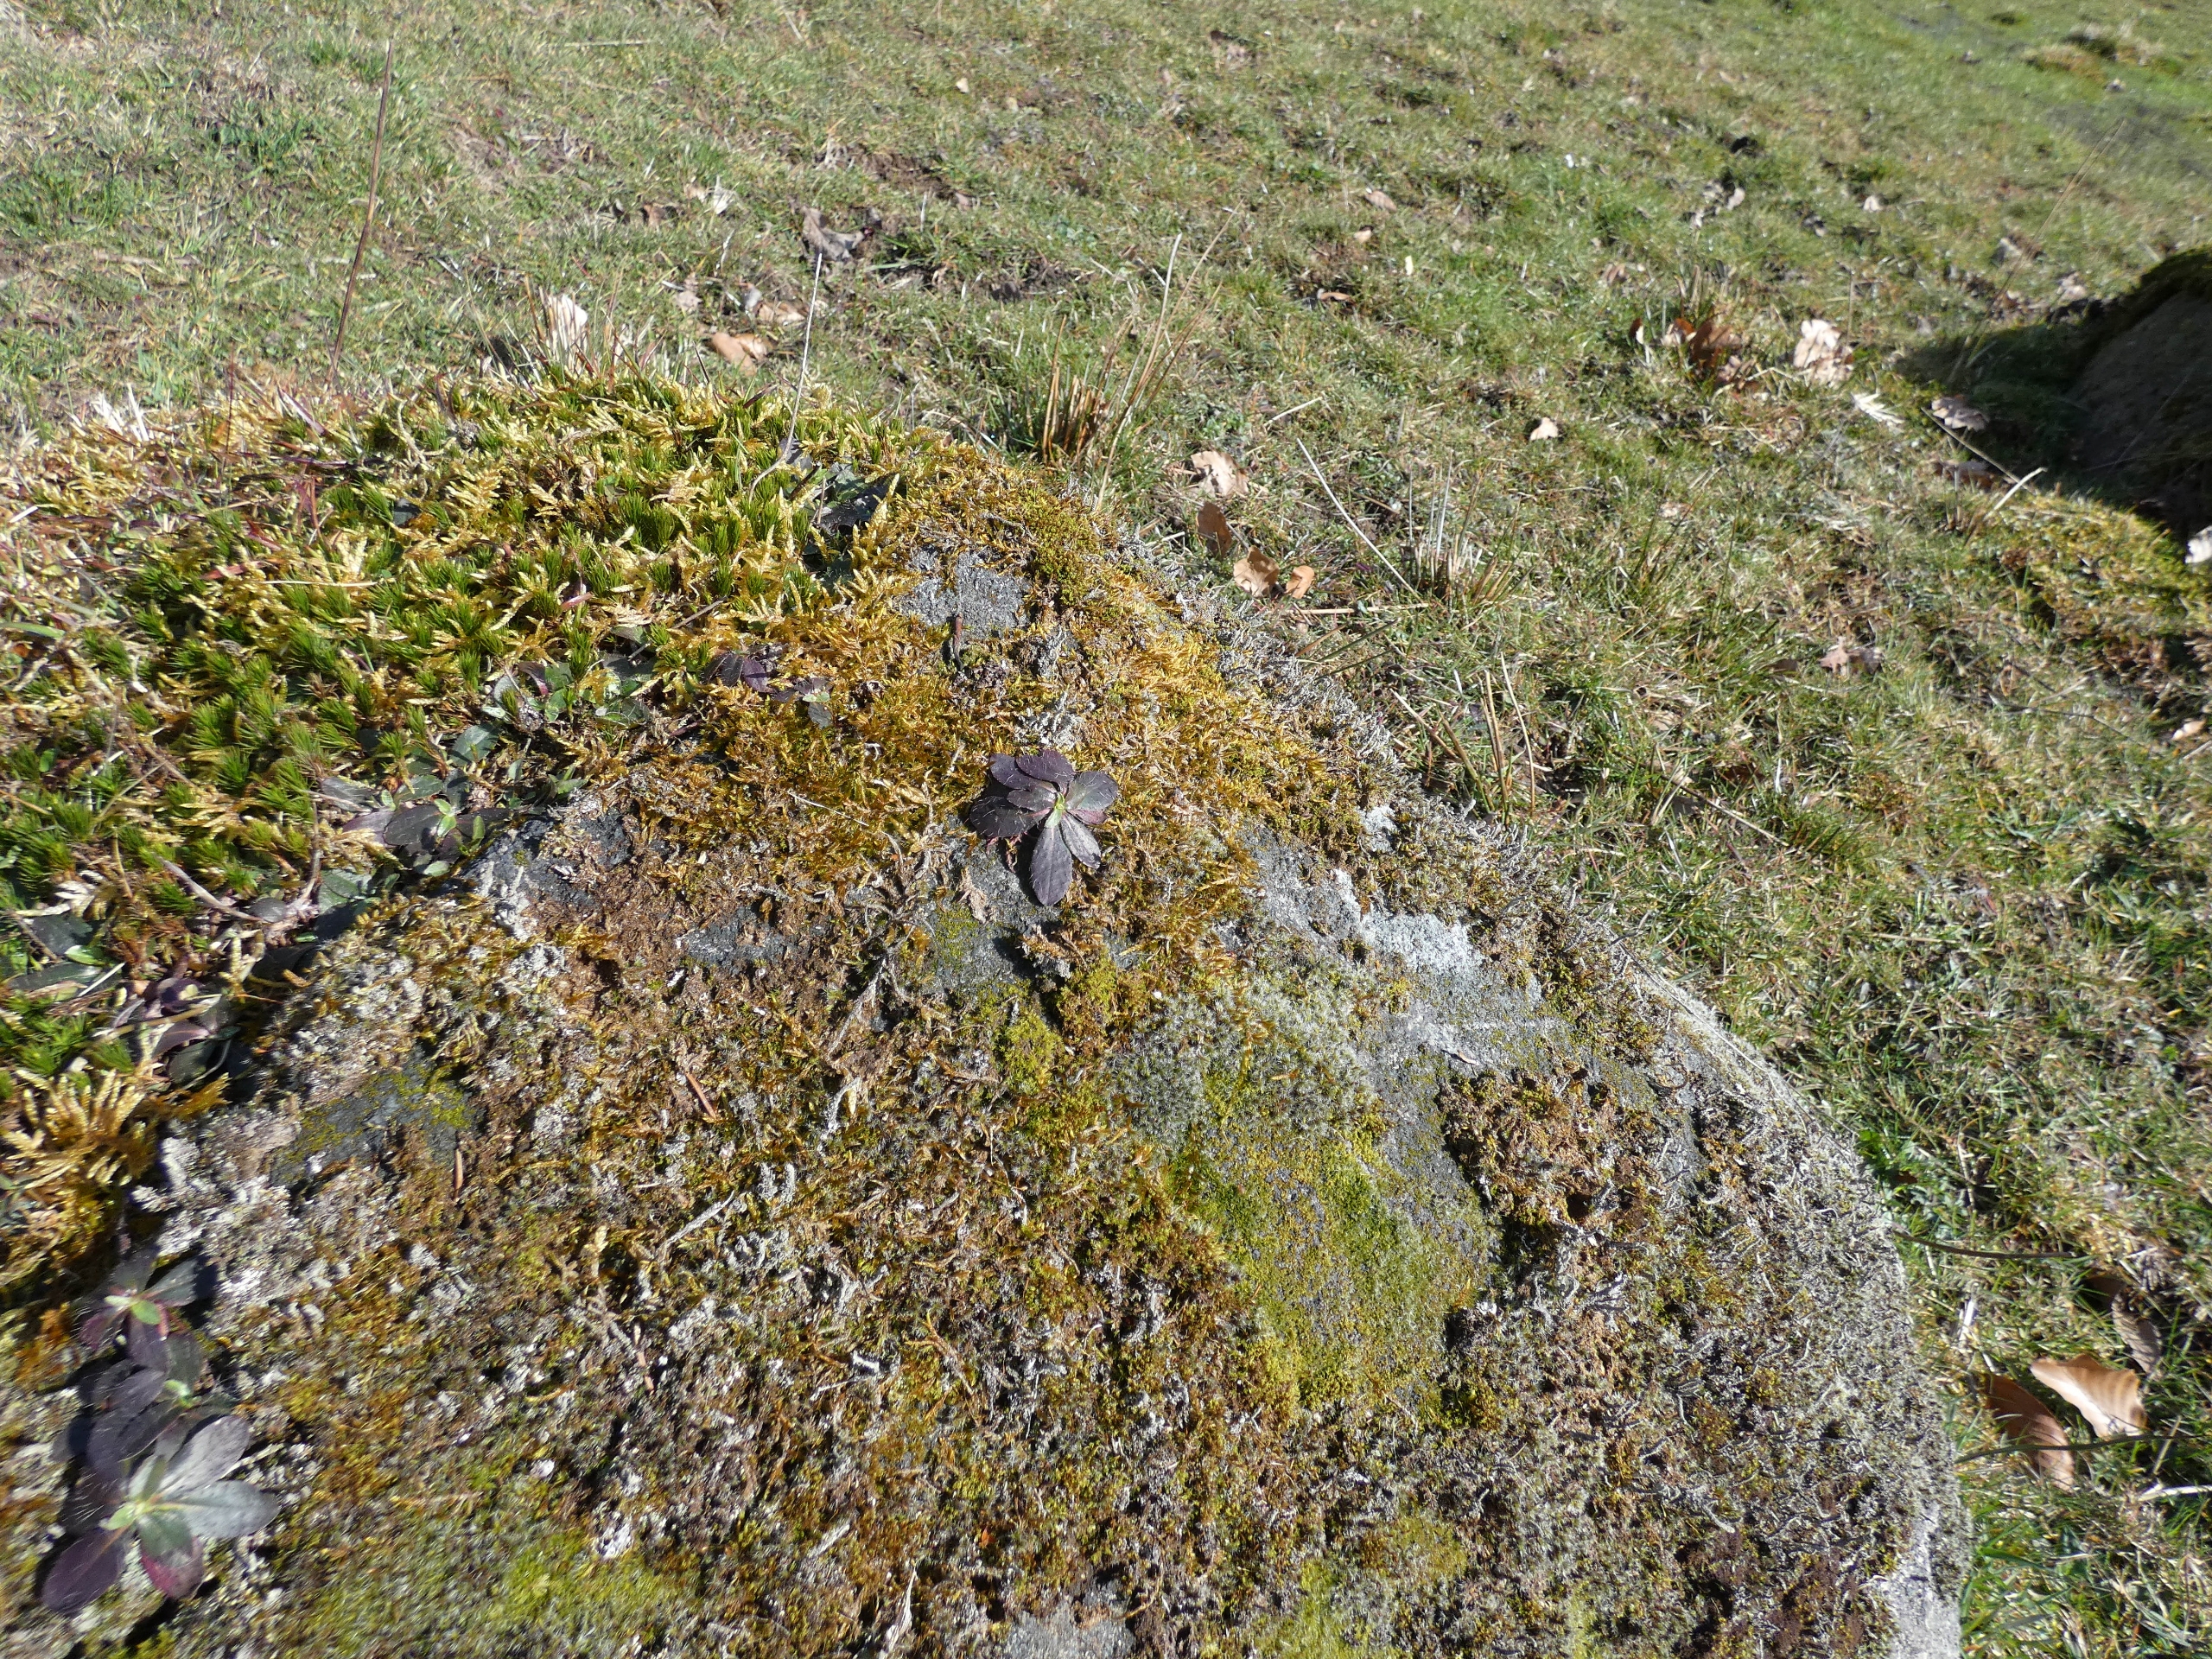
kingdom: Plantae
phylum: Bryophyta
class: Bryopsida
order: Grimmiales
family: Grimmiaceae
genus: Bucklandiella
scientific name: Bucklandiella heterosticha
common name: Sten-børstemos
